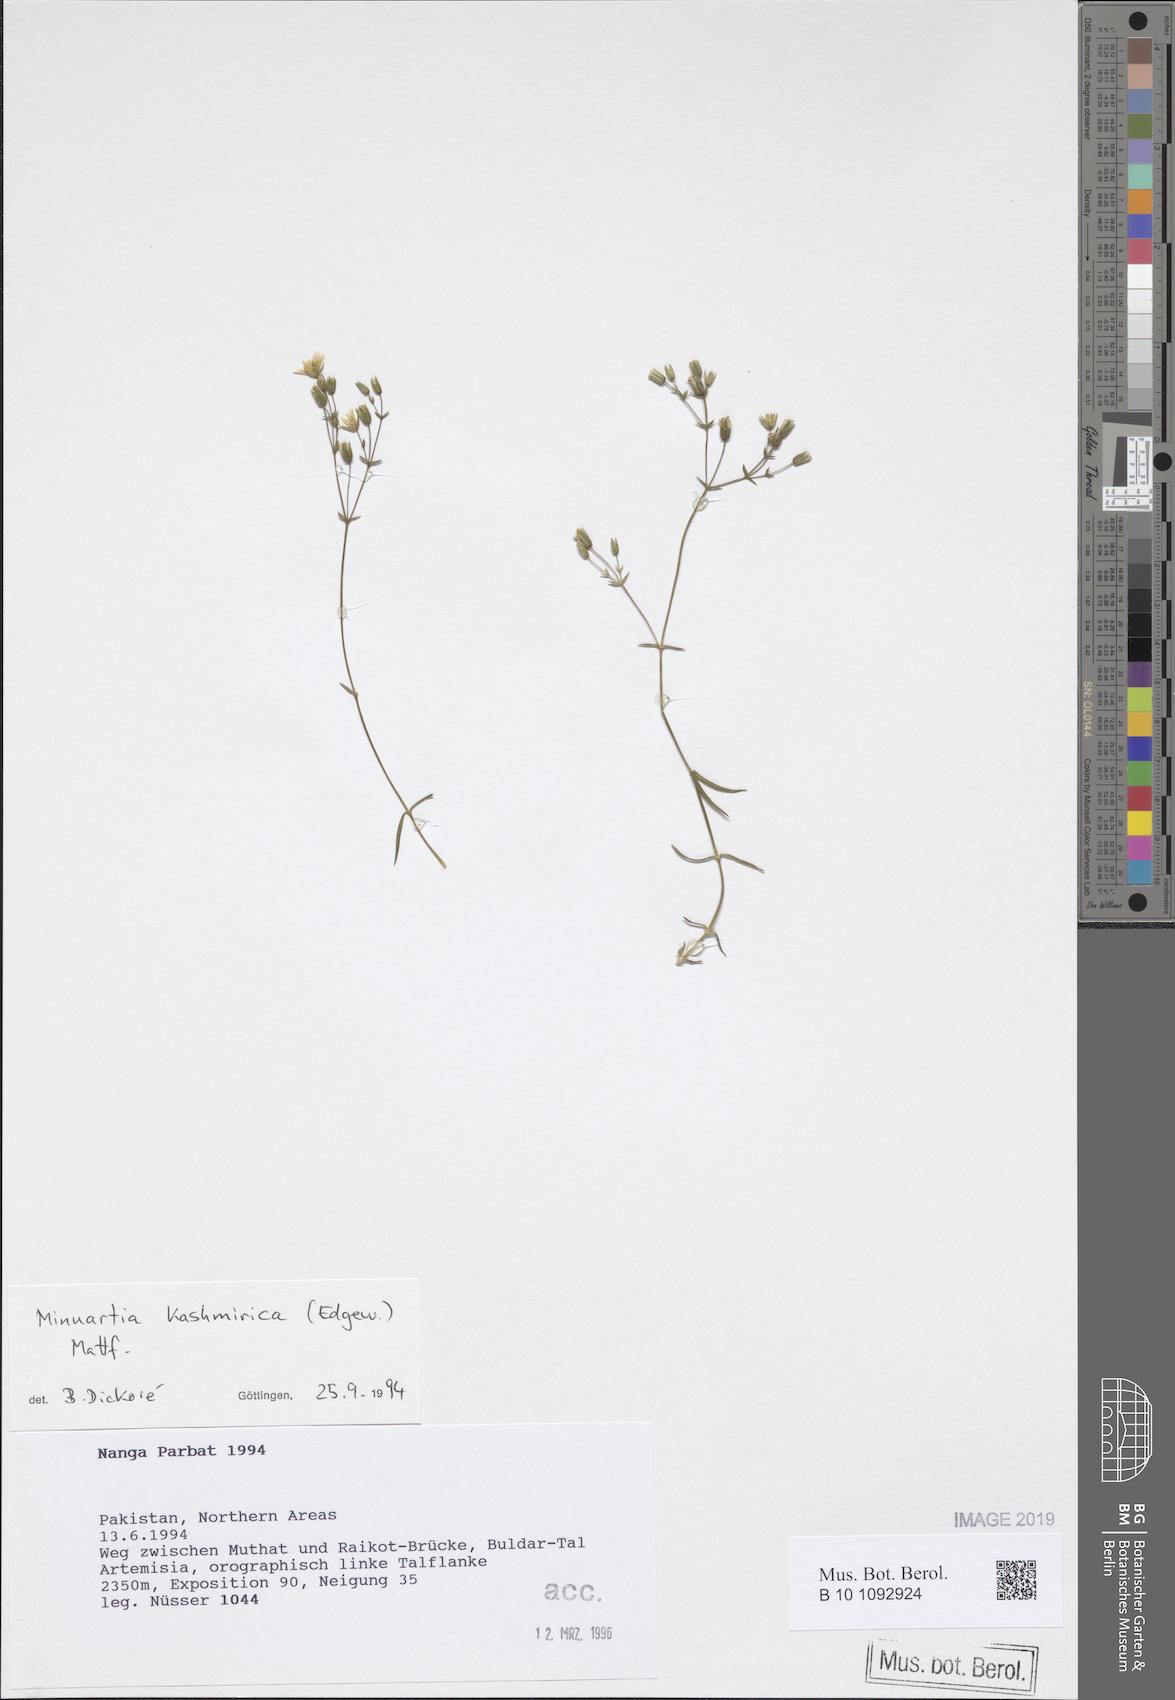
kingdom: Plantae
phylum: Tracheophyta
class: Magnoliopsida
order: Caryophyllales
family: Caryophyllaceae
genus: Sabulina
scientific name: Sabulina kashmirica
